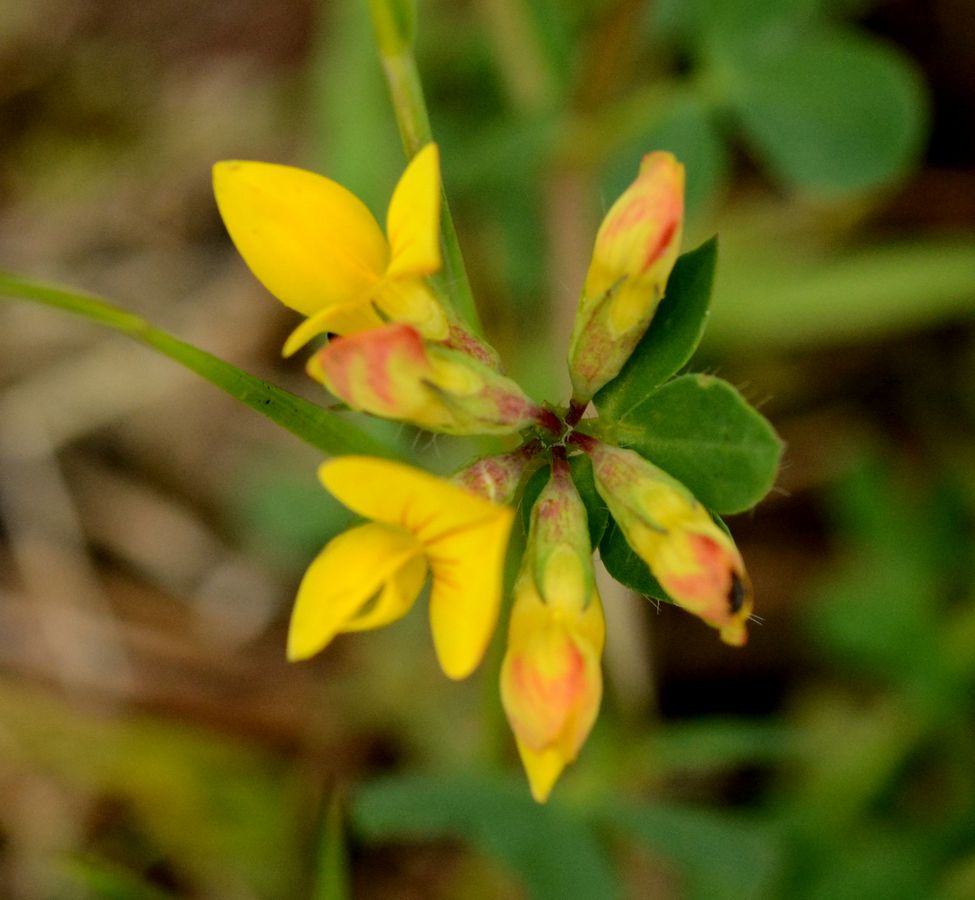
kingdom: Plantae
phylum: Tracheophyta
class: Magnoliopsida
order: Fabales
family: Fabaceae
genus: Lotus
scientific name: Lotus corniculatus
